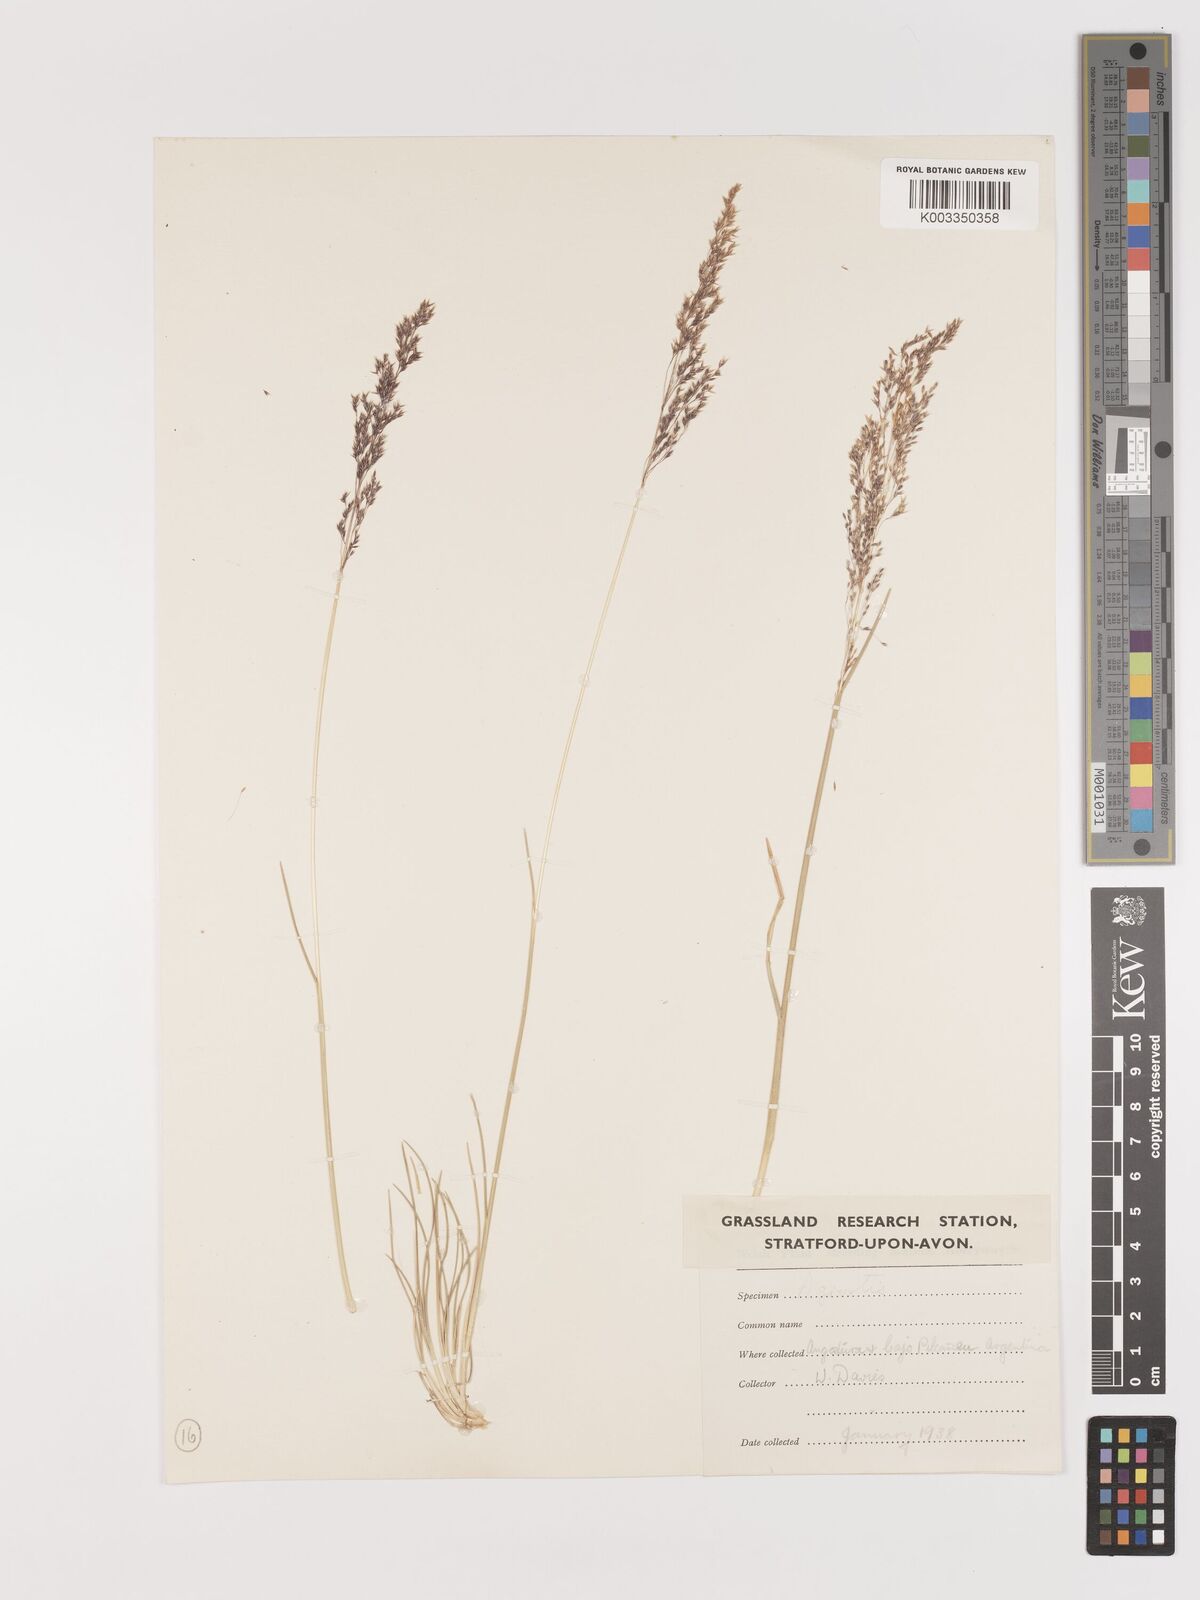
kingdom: Plantae
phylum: Tracheophyta
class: Liliopsida
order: Poales
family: Poaceae
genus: Agrostis
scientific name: Agrostis
